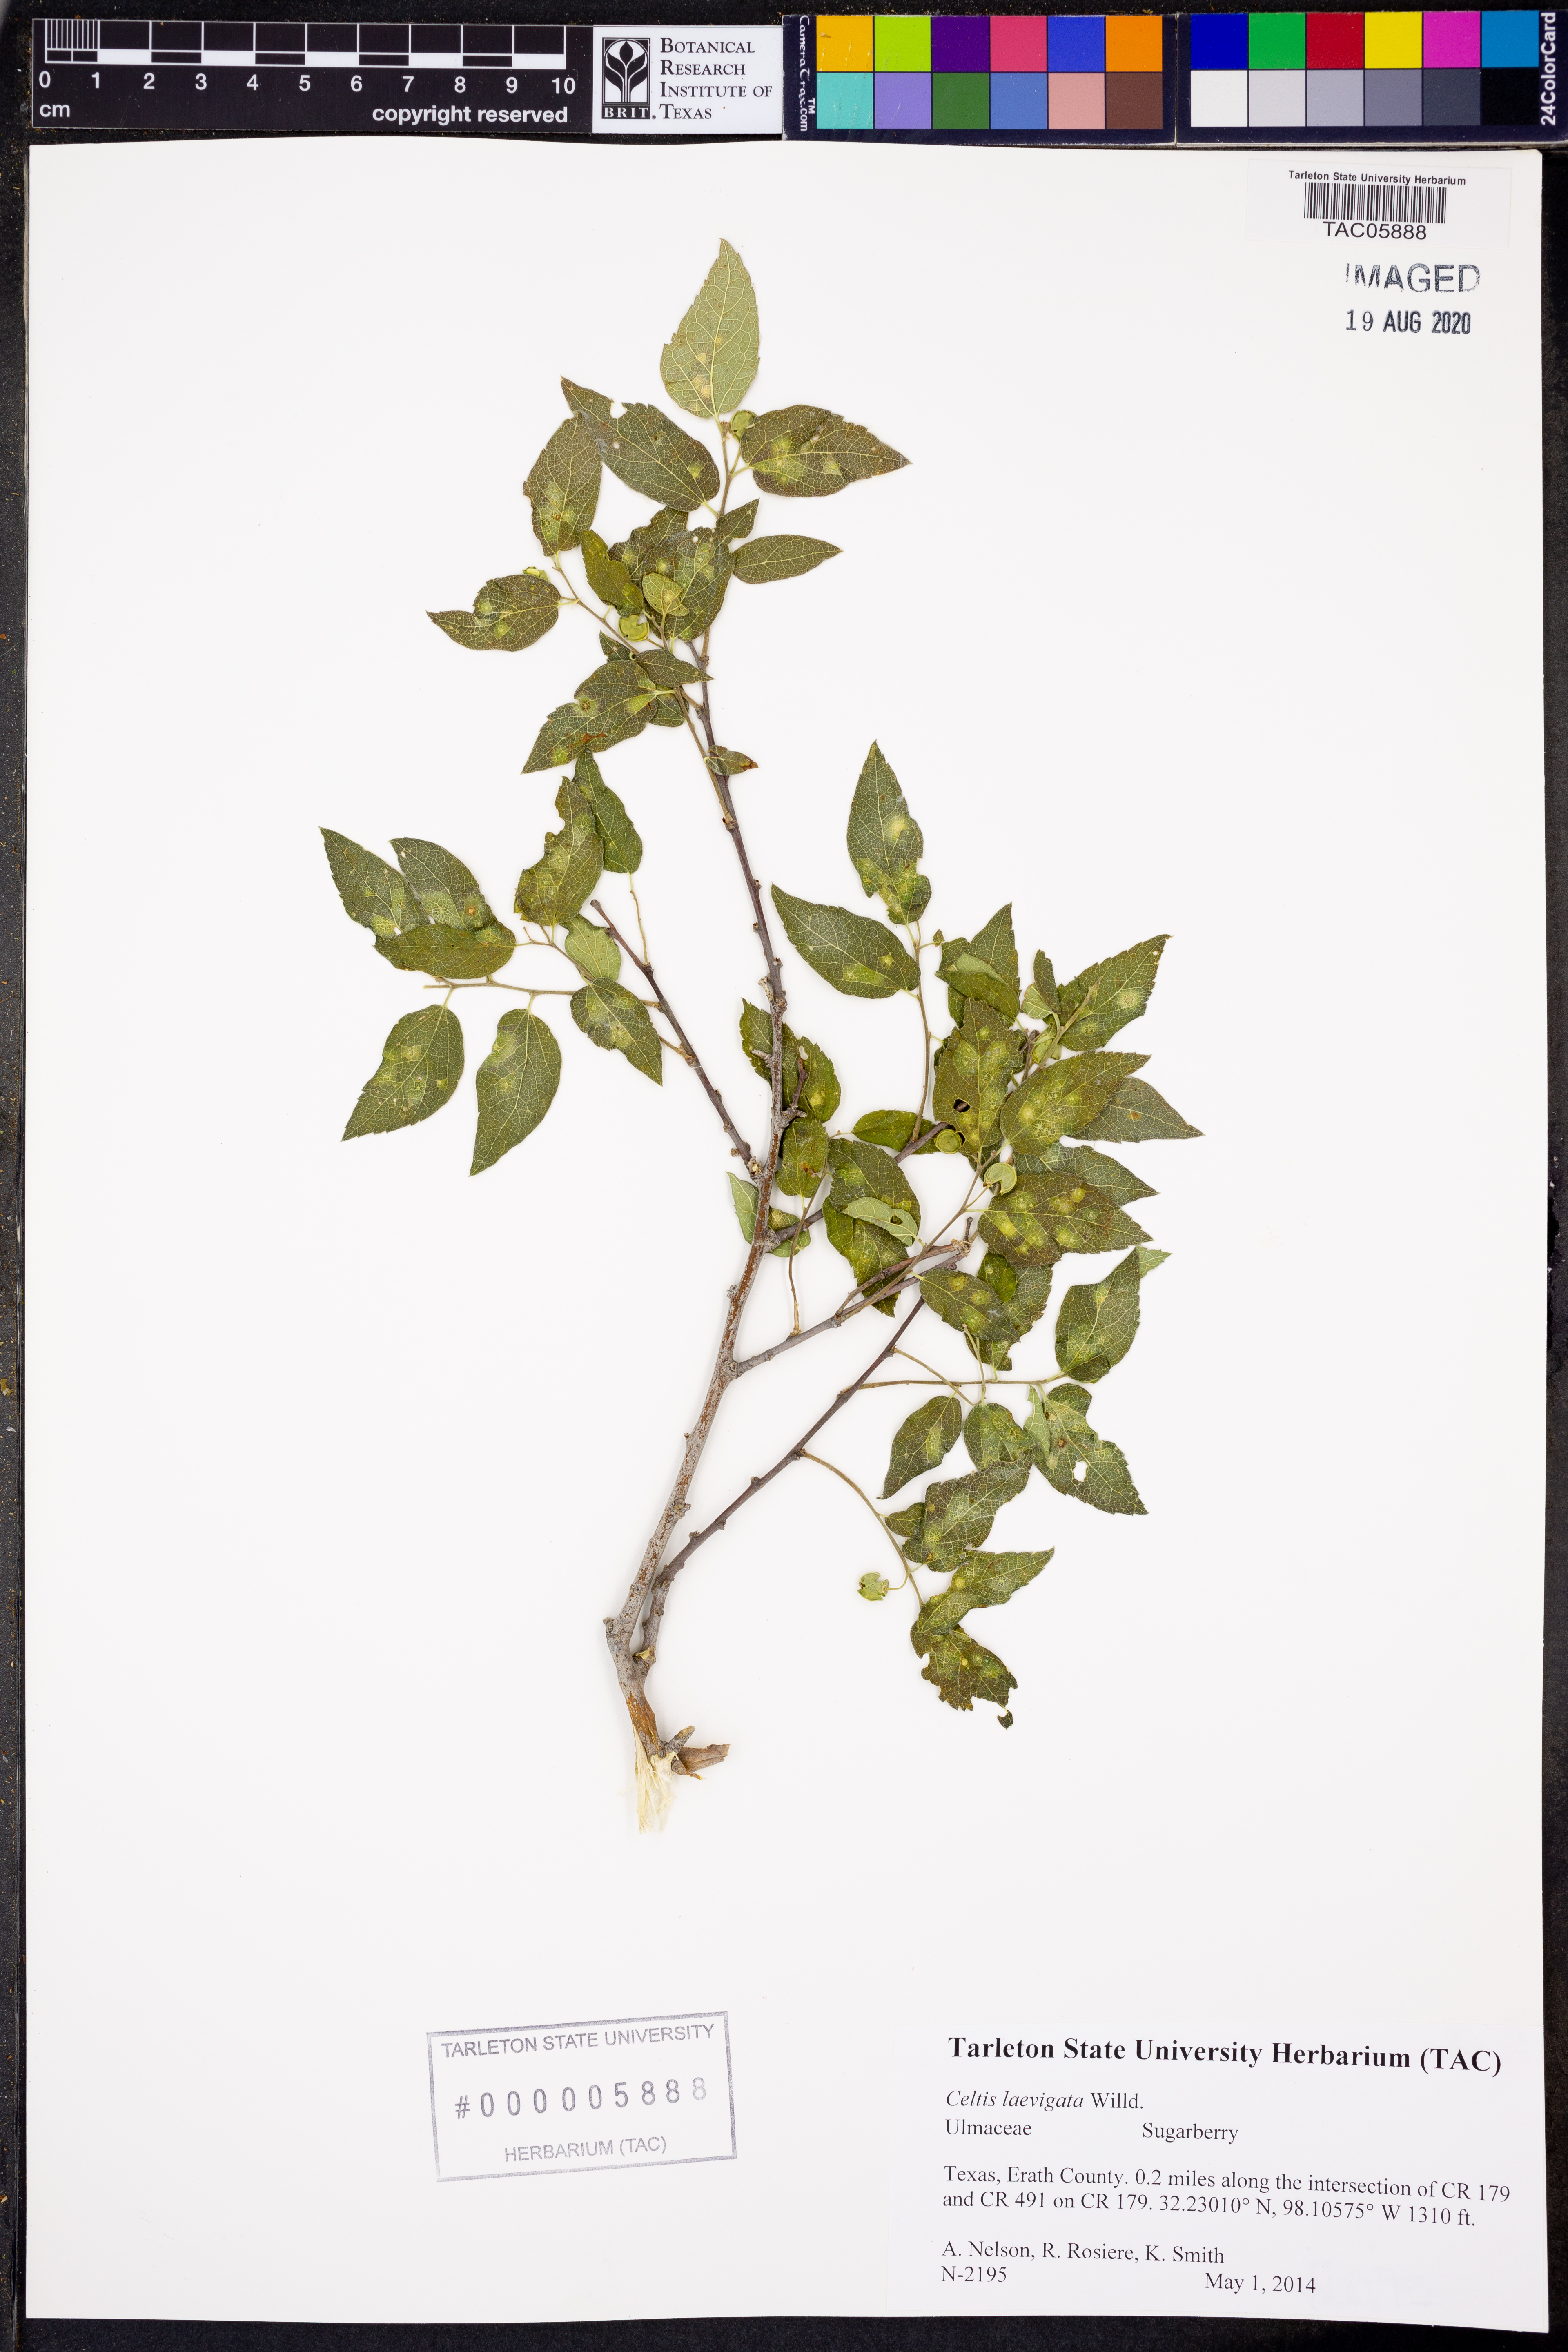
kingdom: Plantae
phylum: Tracheophyta
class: Magnoliopsida
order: Rosales
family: Cannabaceae
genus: Celtis
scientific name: Celtis laevigata
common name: Sugarberry
